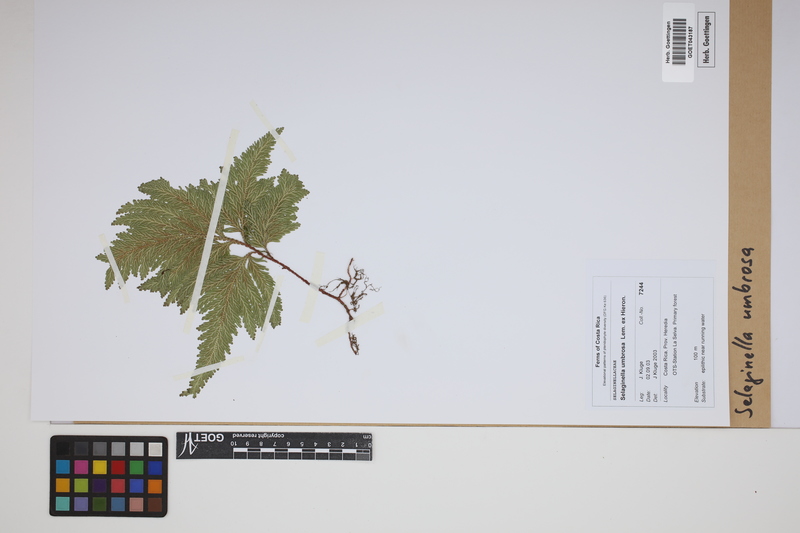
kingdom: Plantae
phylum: Tracheophyta
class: Lycopodiopsida
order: Selaginellales
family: Selaginellaceae
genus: Selaginella
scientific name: Selaginella umbrosa
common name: Spikemoss
